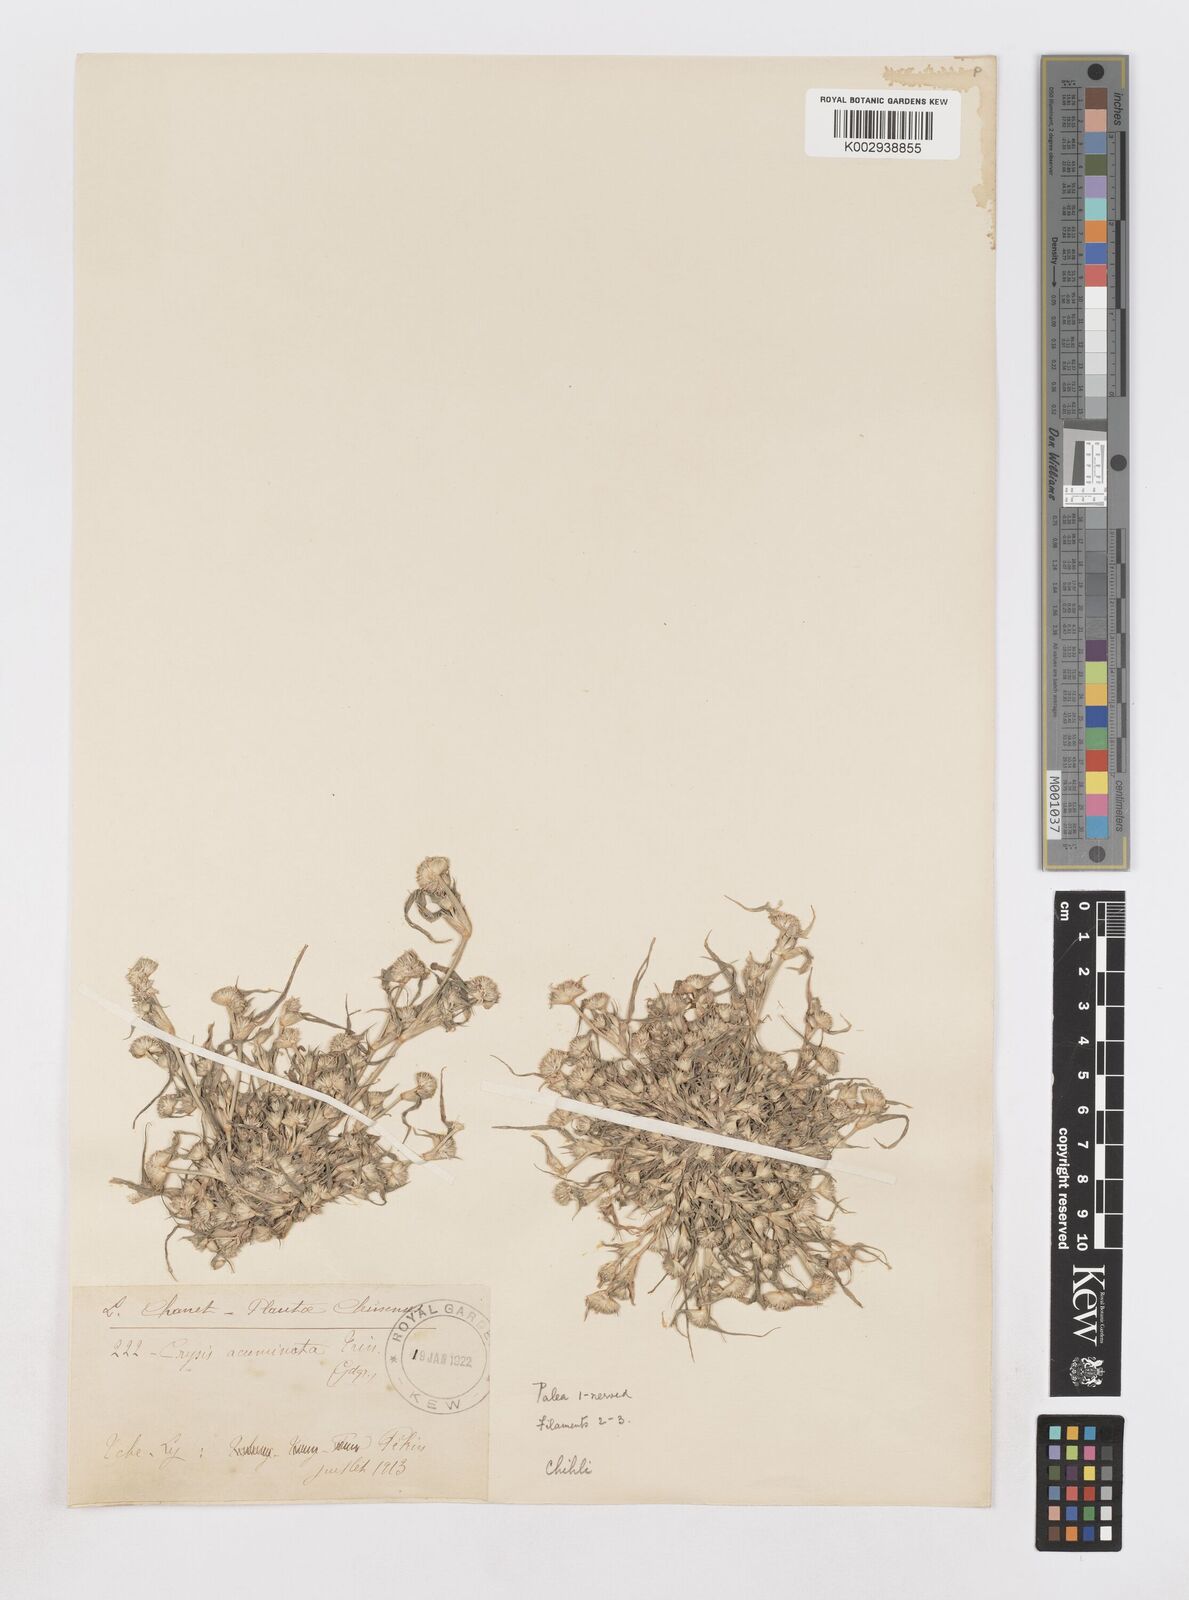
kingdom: Plantae
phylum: Tracheophyta
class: Liliopsida
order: Poales
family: Poaceae
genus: Sporobolus
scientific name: Sporobolus aculeatus
